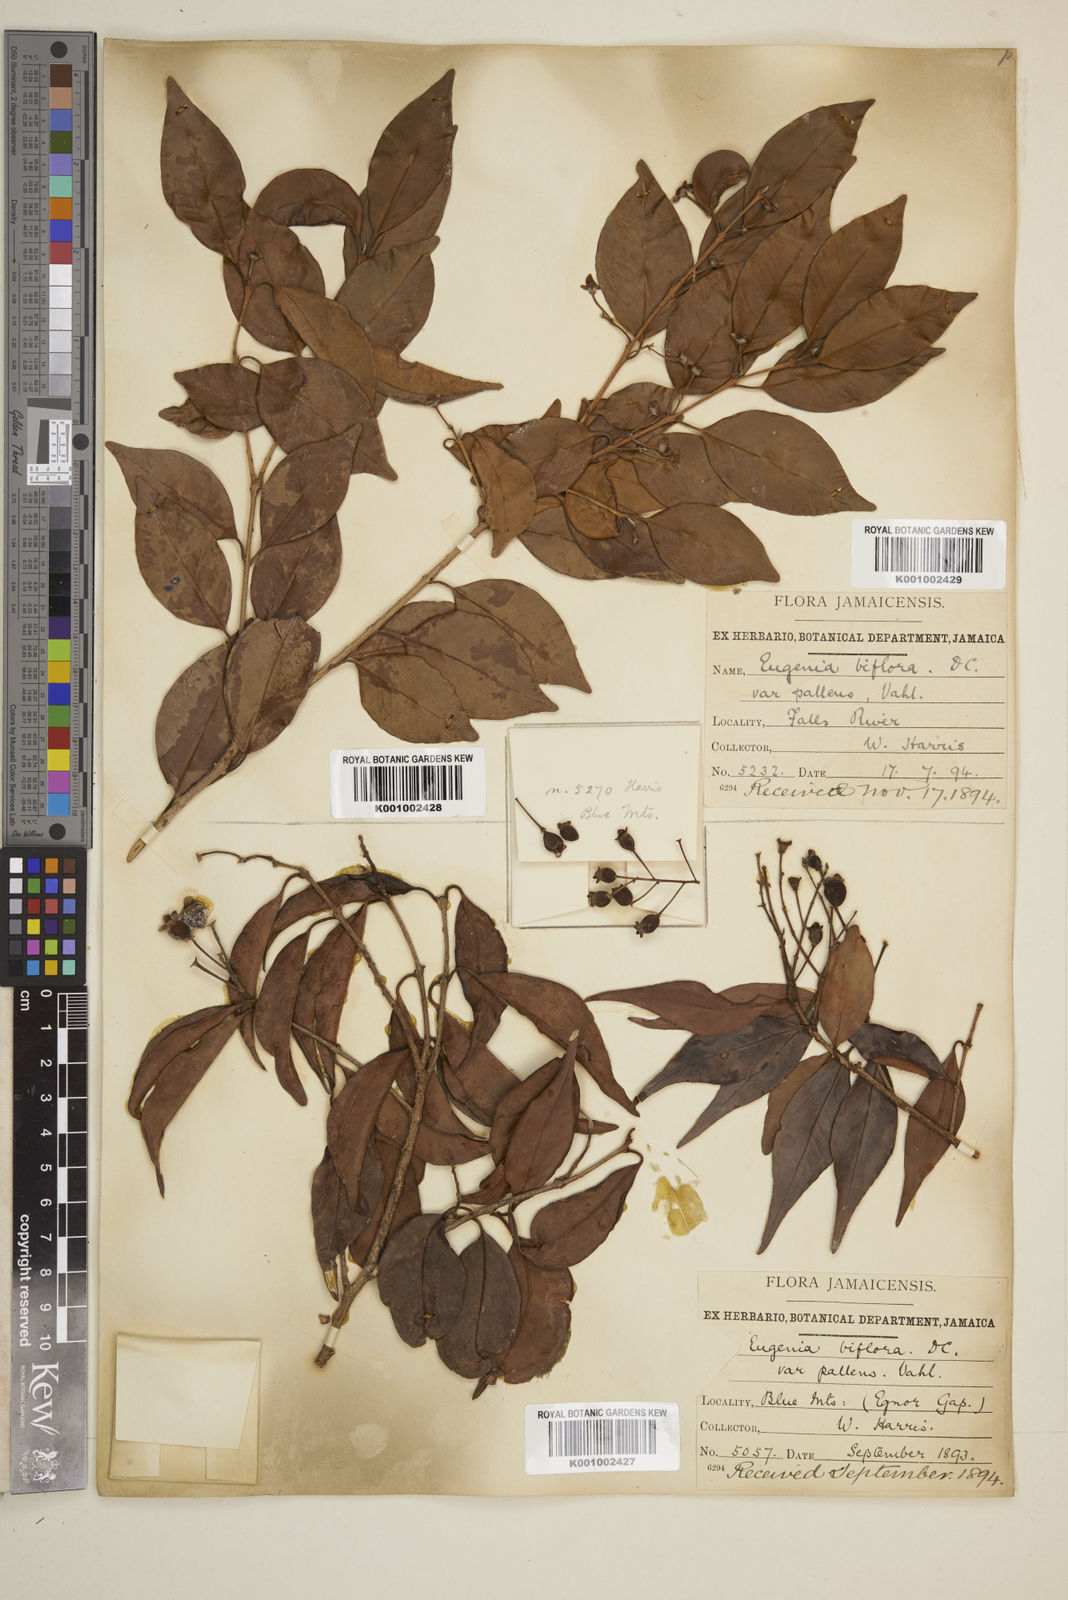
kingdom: Plantae
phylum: Tracheophyta
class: Magnoliopsida
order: Myrtales
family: Myrtaceae
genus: Eugenia
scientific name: Eugenia biflora
